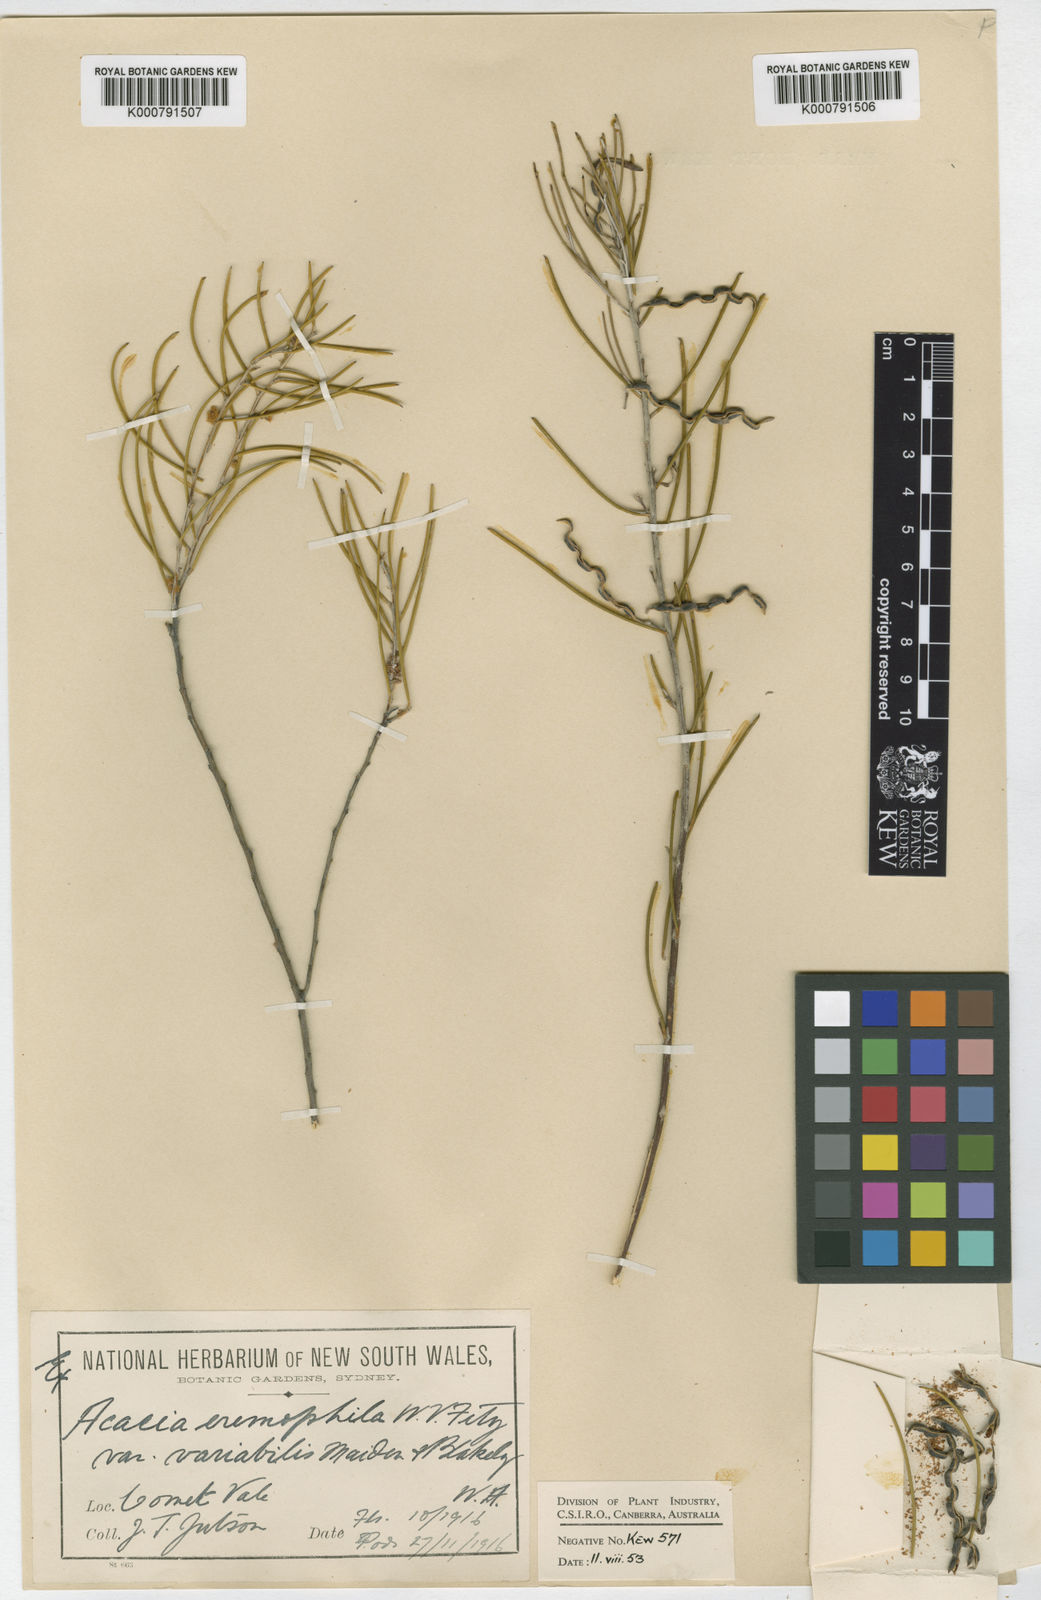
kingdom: Plantae
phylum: Tracheophyta
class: Magnoliopsida
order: Fabales
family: Fabaceae
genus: Acacia
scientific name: Acacia eremophila
